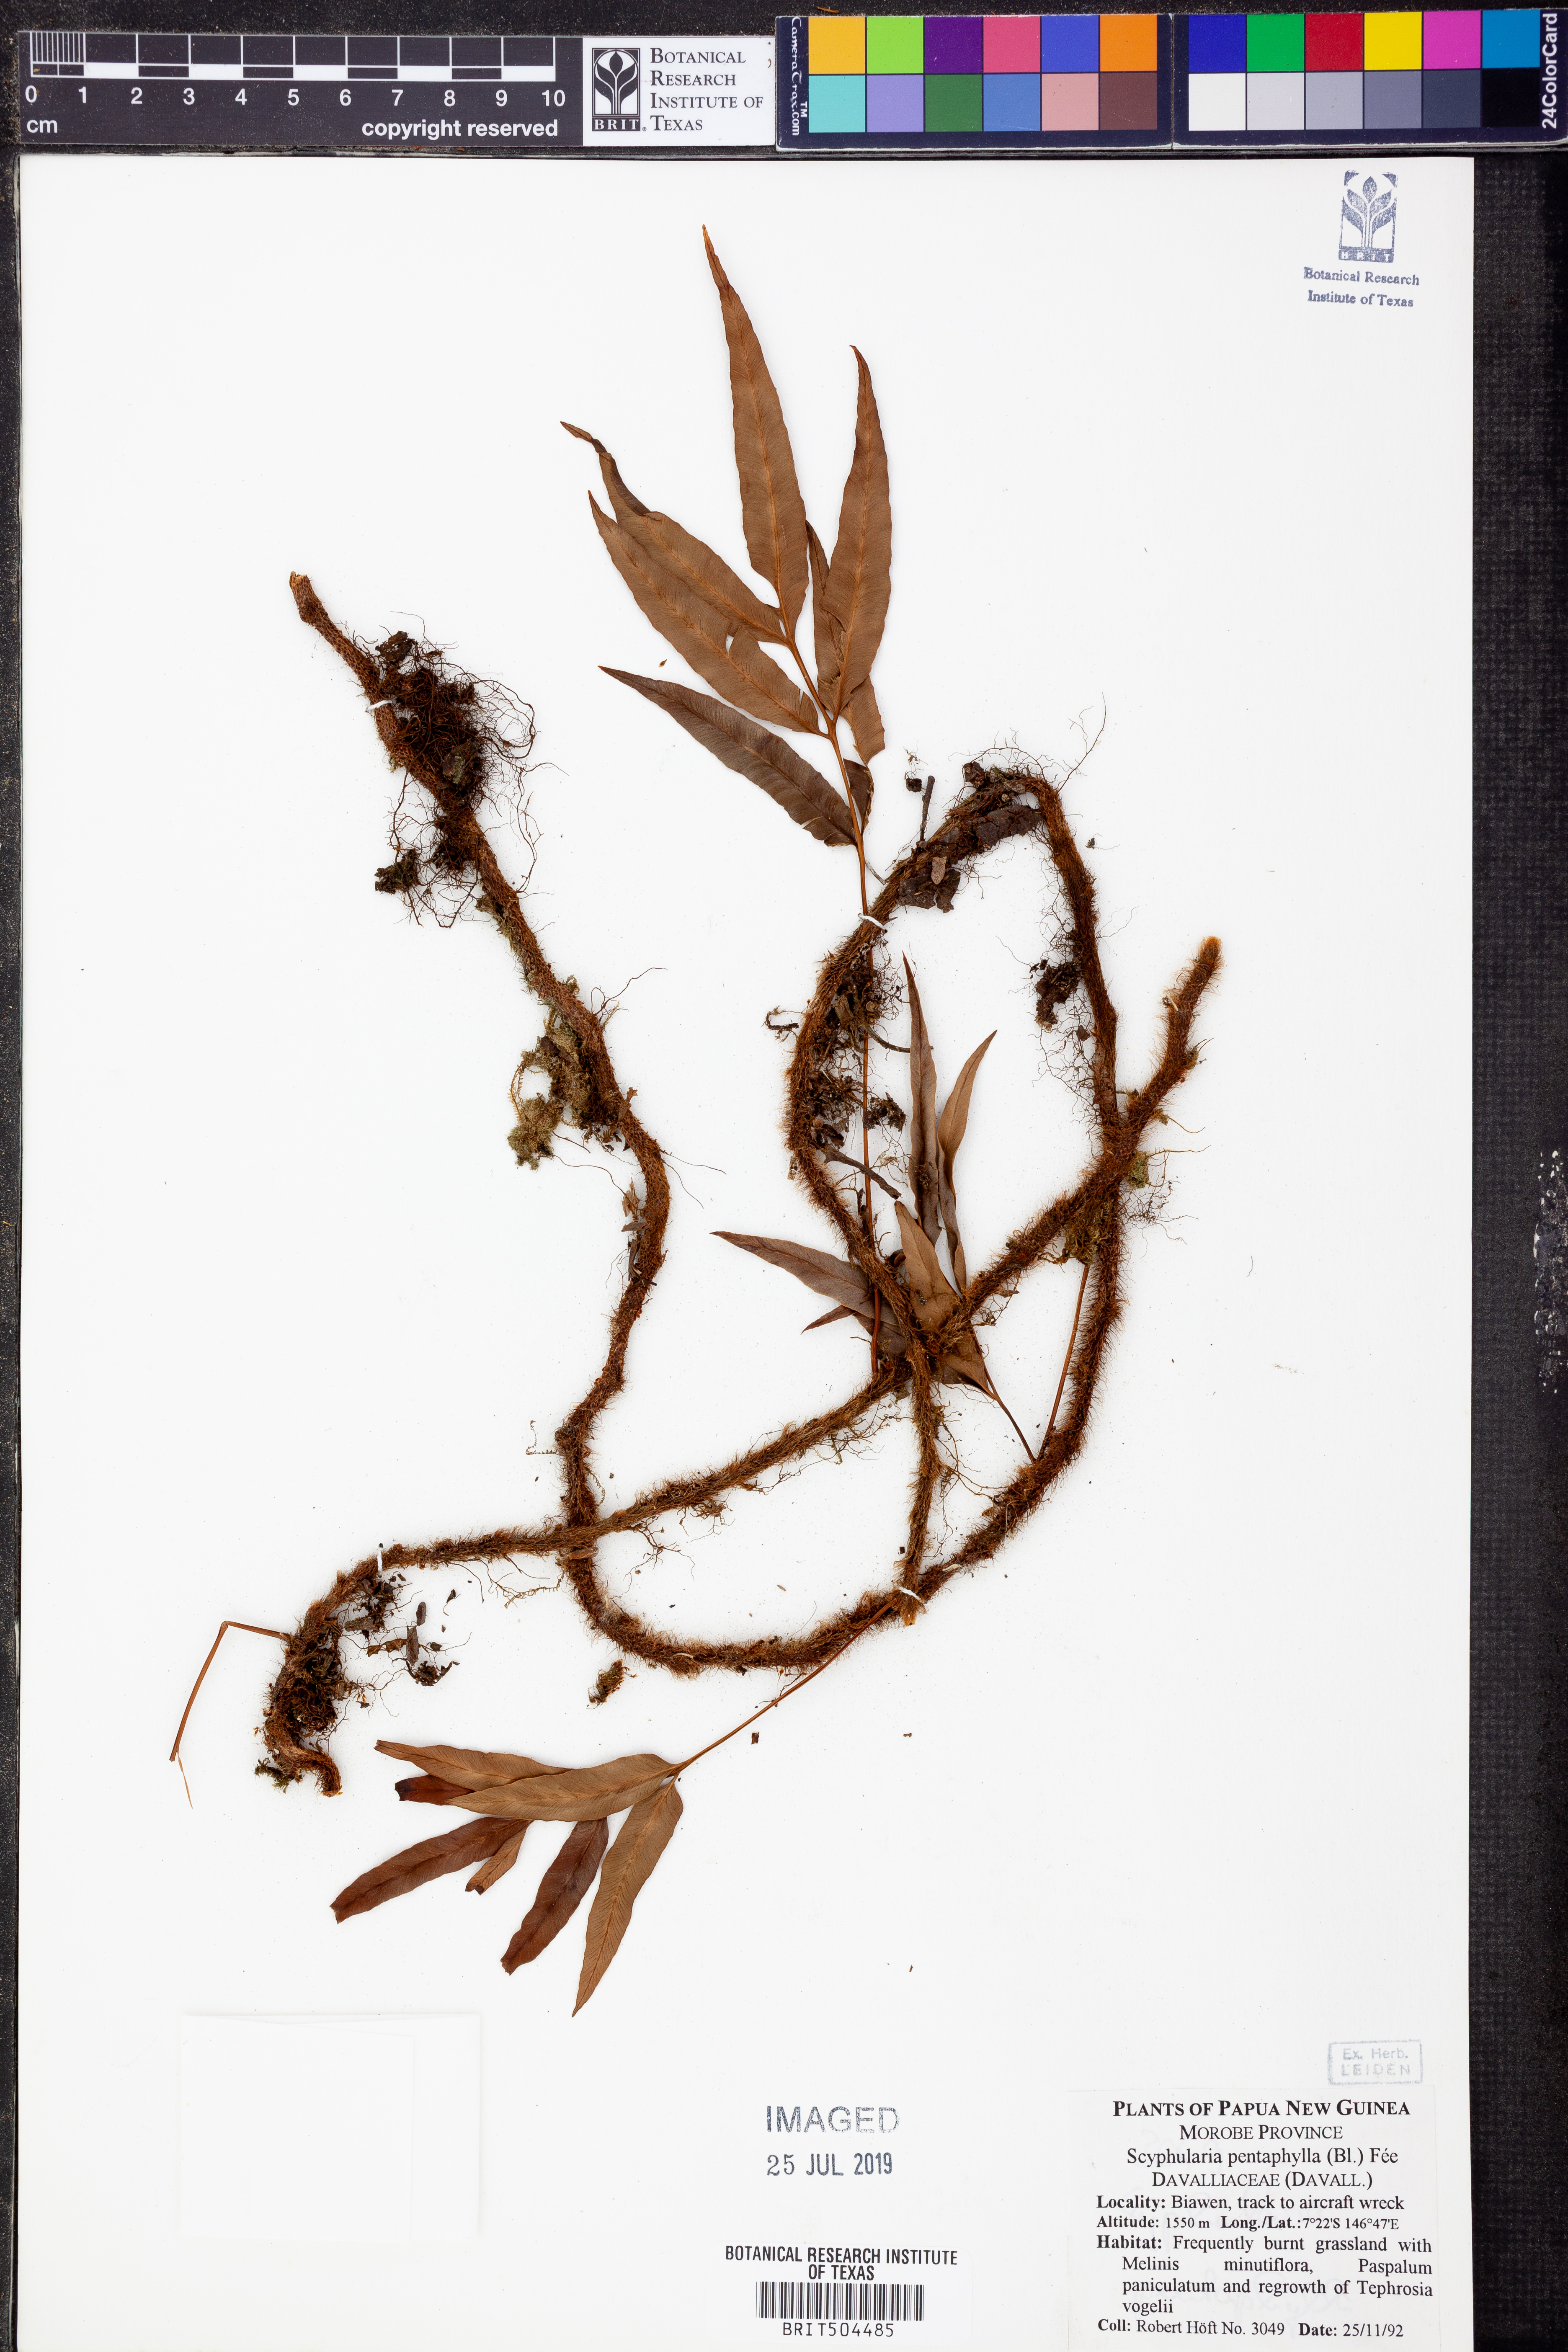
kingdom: Plantae
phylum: Tracheophyta
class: Polypodiopsida
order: Polypodiales
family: Davalliaceae
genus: Davallia
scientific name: Davallia pentaphylla
